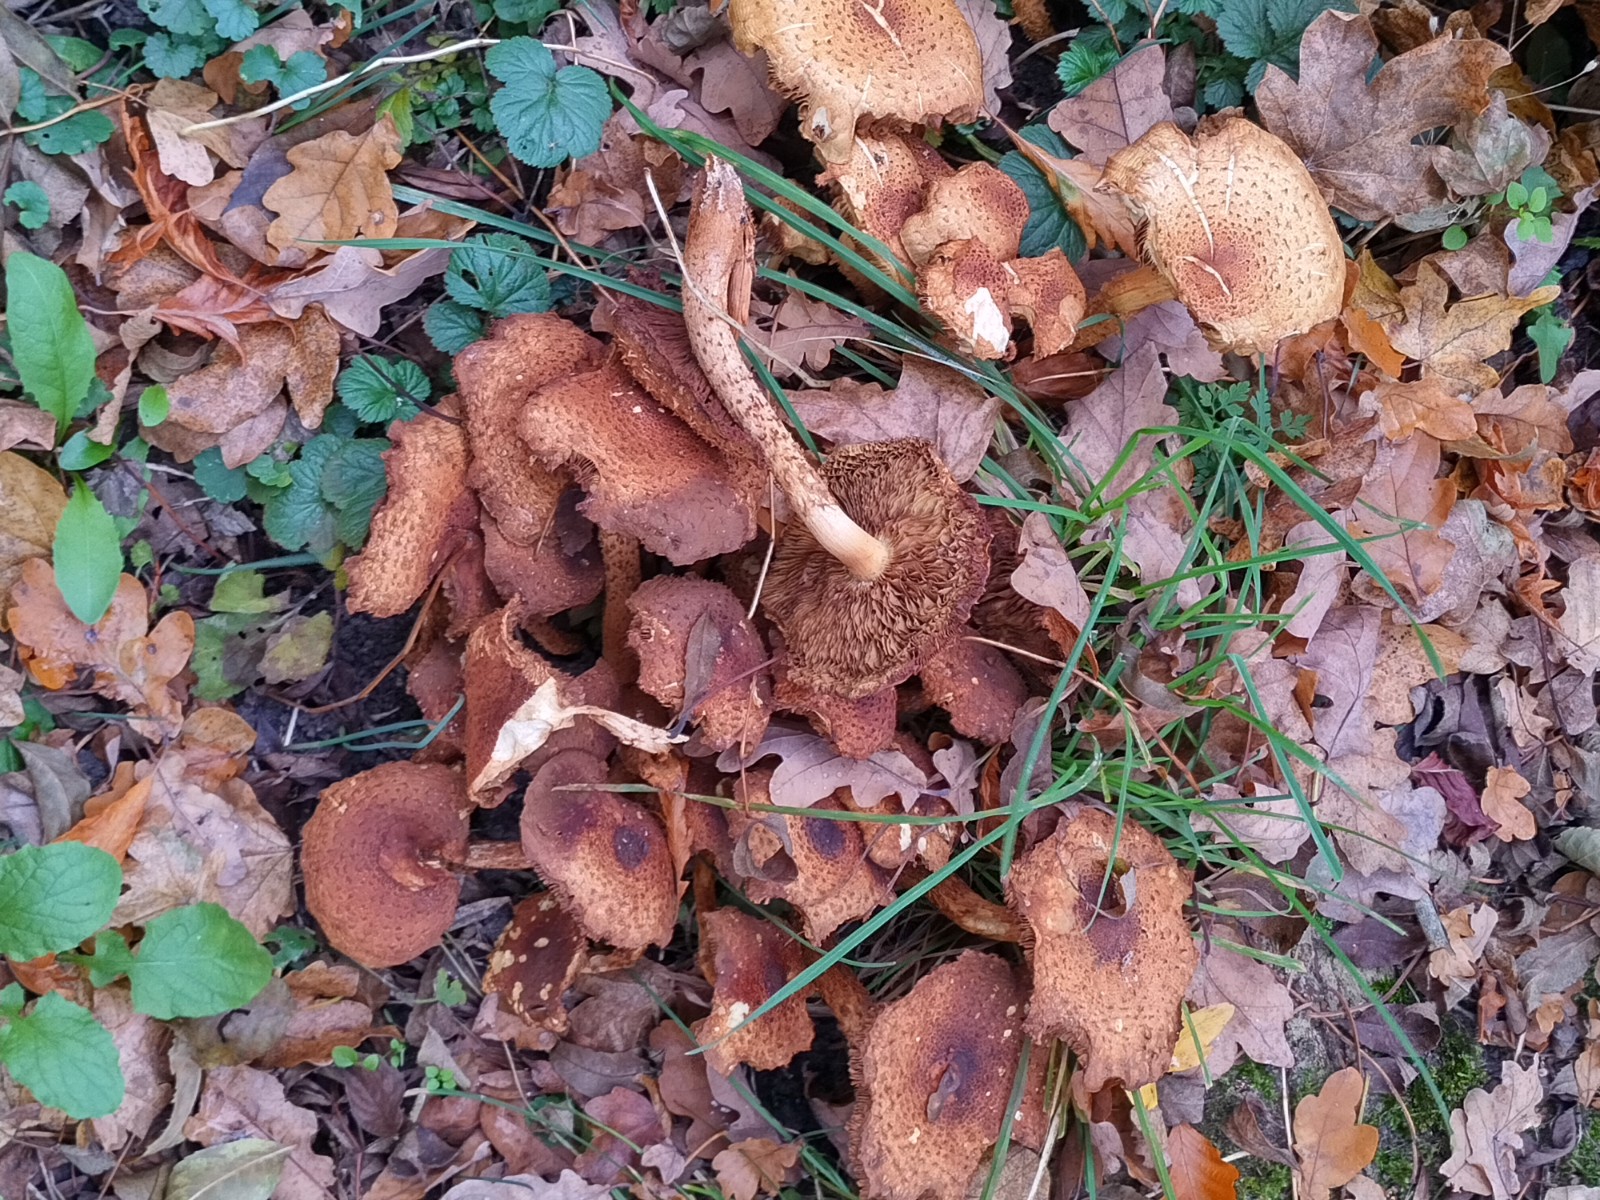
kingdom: Fungi
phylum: Basidiomycota
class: Agaricomycetes
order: Agaricales
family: Strophariaceae
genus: Pholiota
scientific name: Pholiota squarrosa
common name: krumskællet skælhat
